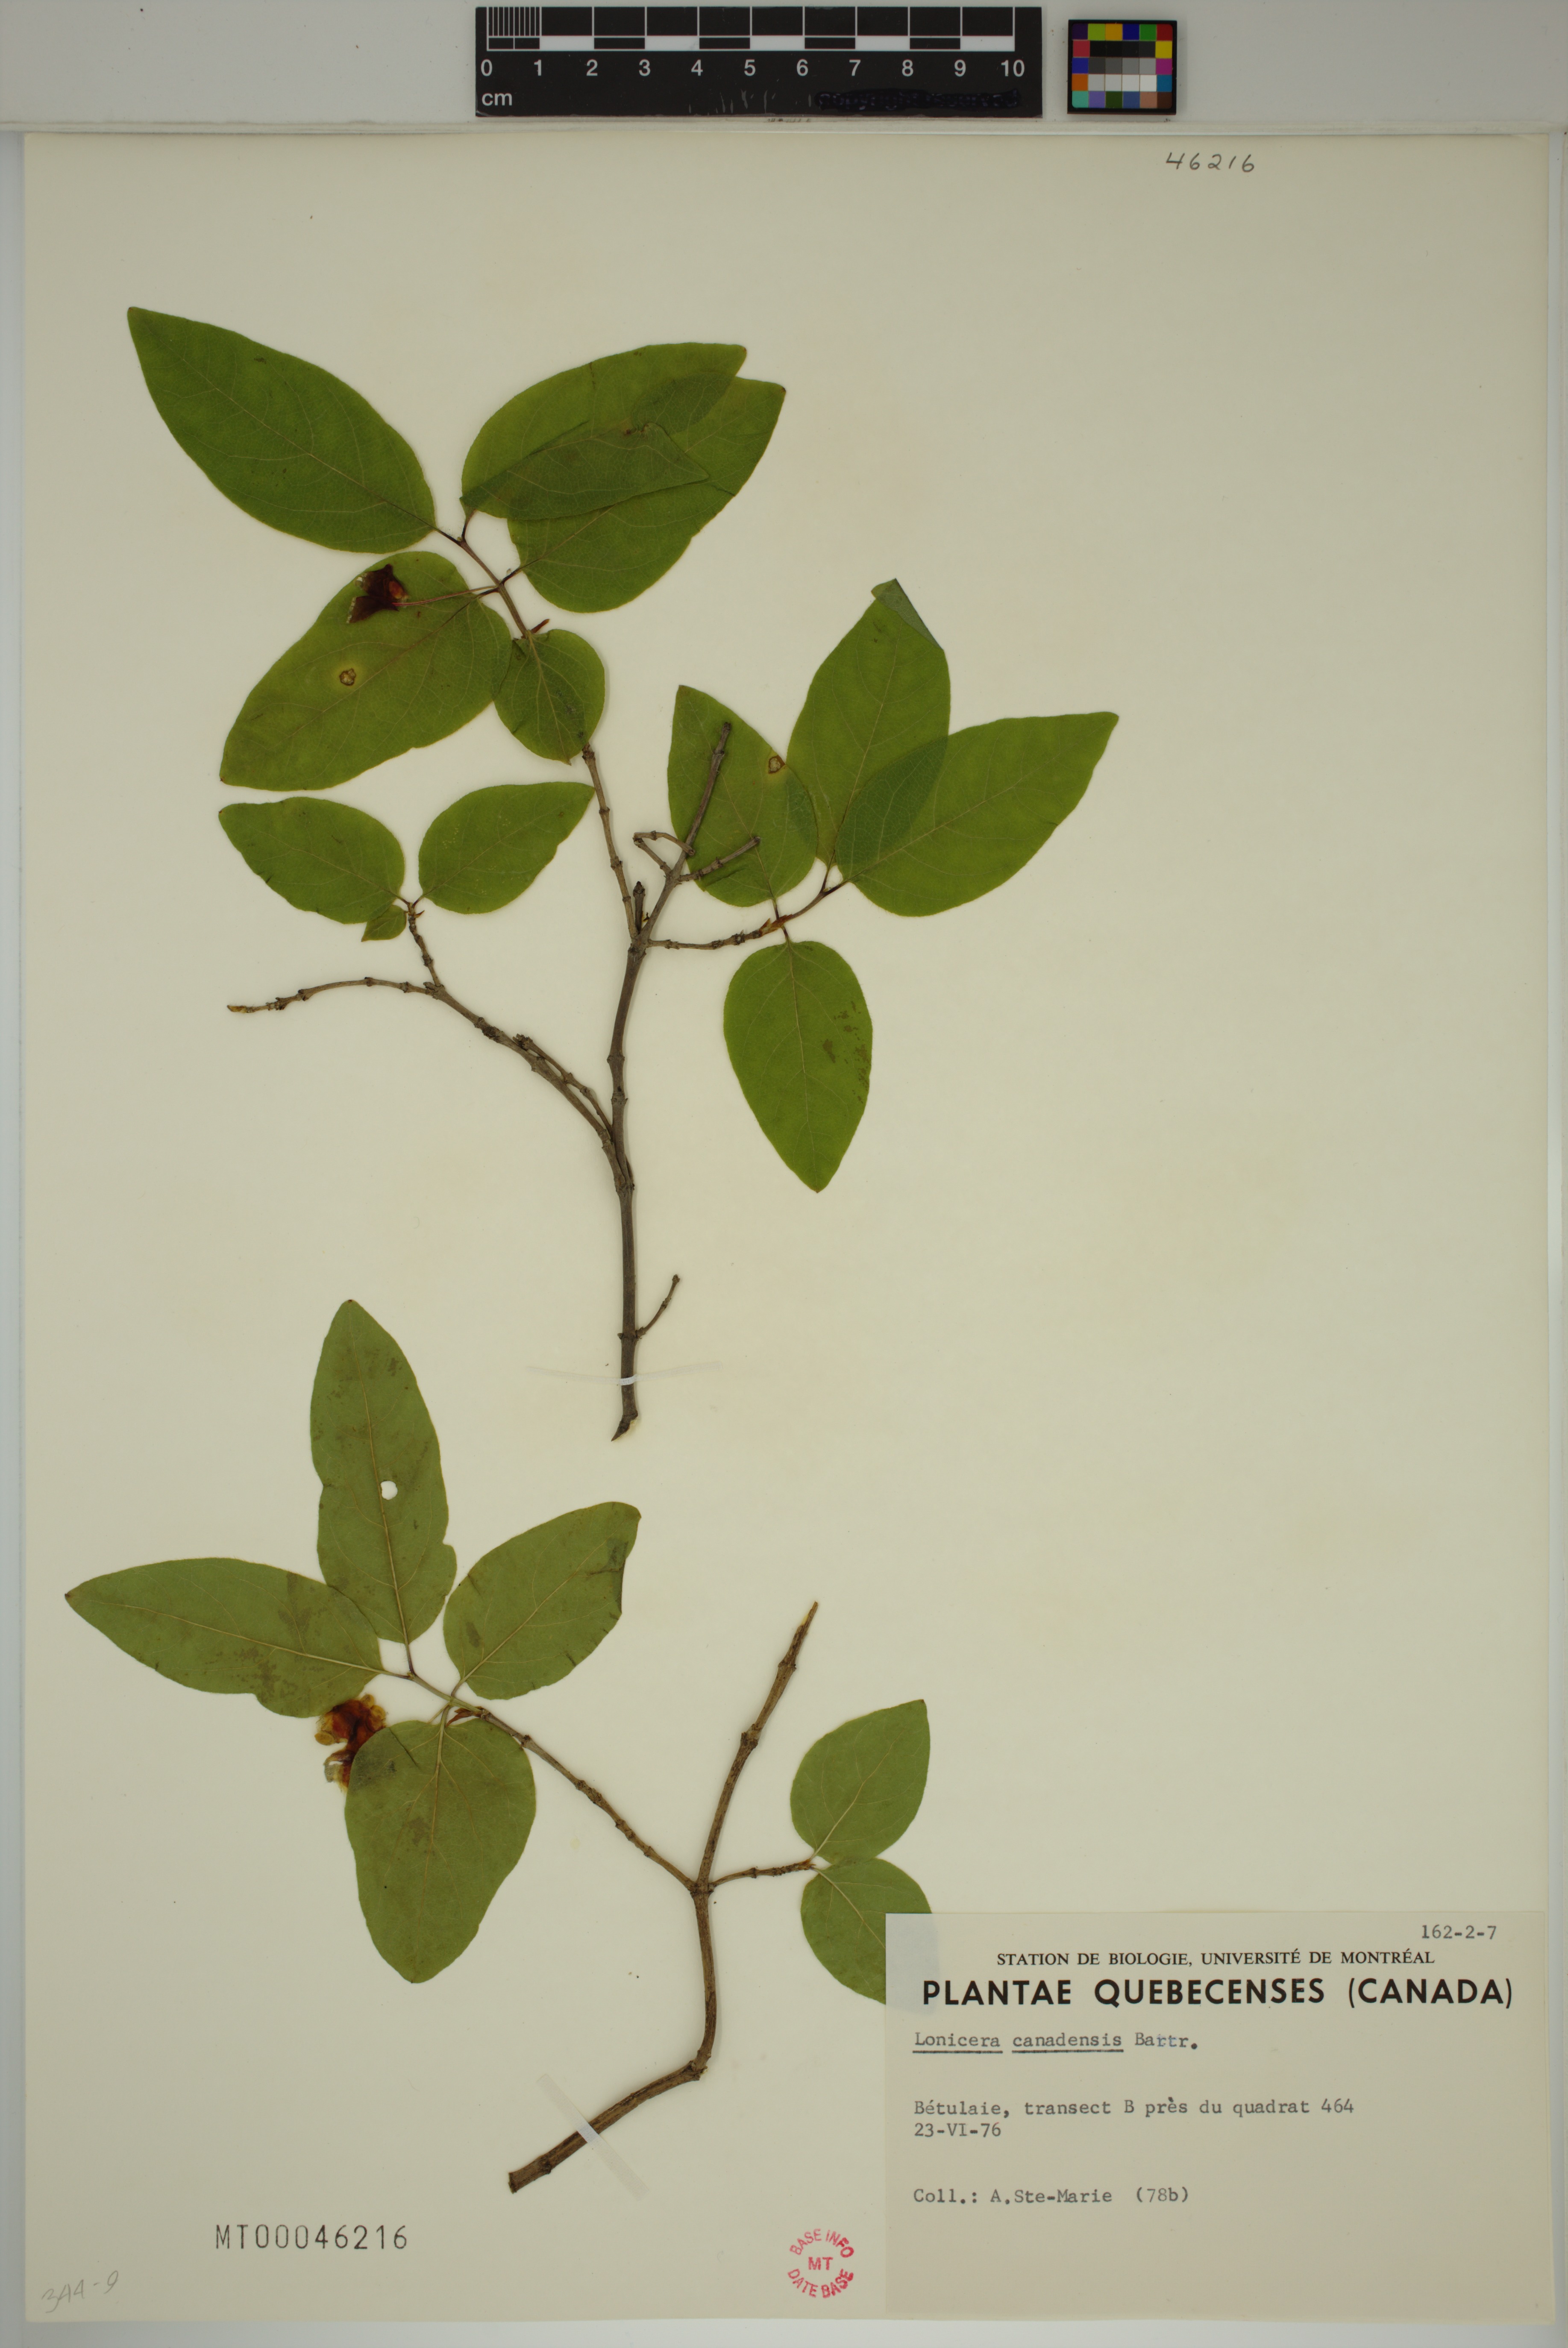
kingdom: Plantae
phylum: Tracheophyta
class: Magnoliopsida
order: Dipsacales
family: Caprifoliaceae
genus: Lonicera
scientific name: Lonicera canadensis
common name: American fly-honeysuckle
